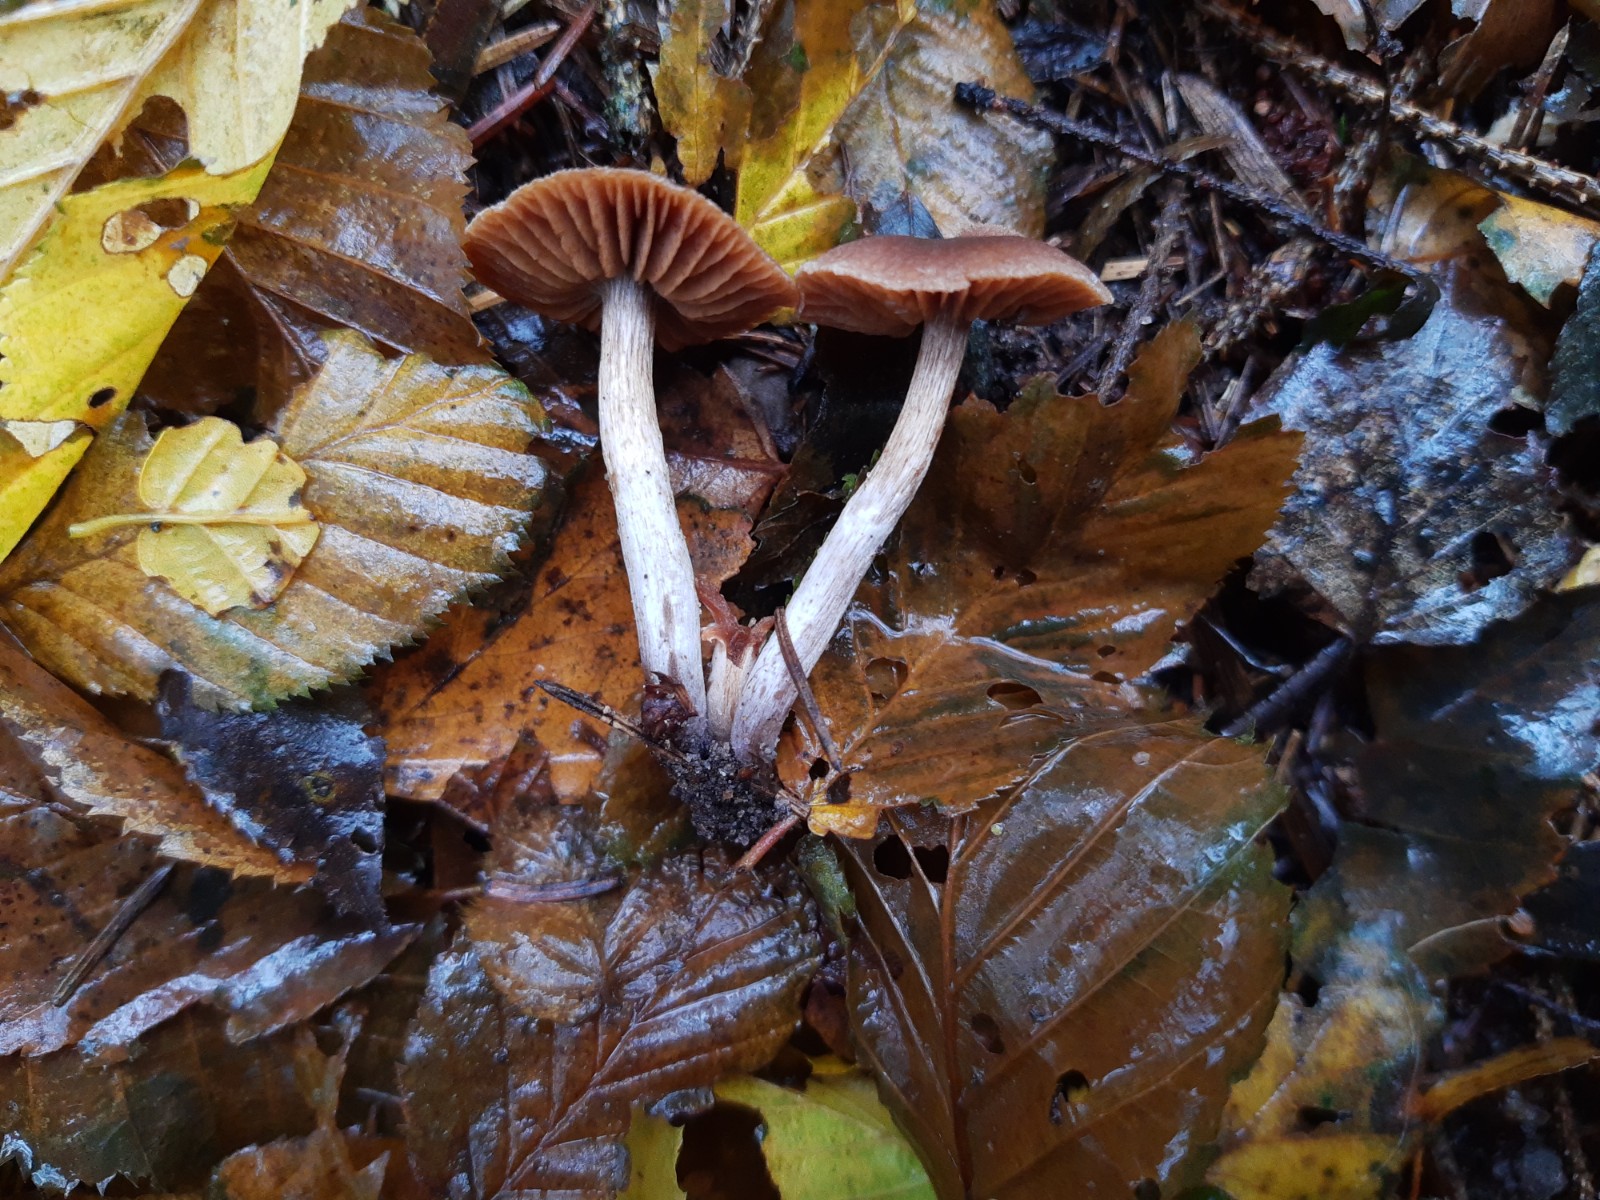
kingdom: Fungi
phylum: Basidiomycota
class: Agaricomycetes
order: Agaricales
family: Cortinariaceae
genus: Cortinarius
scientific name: Cortinarius
